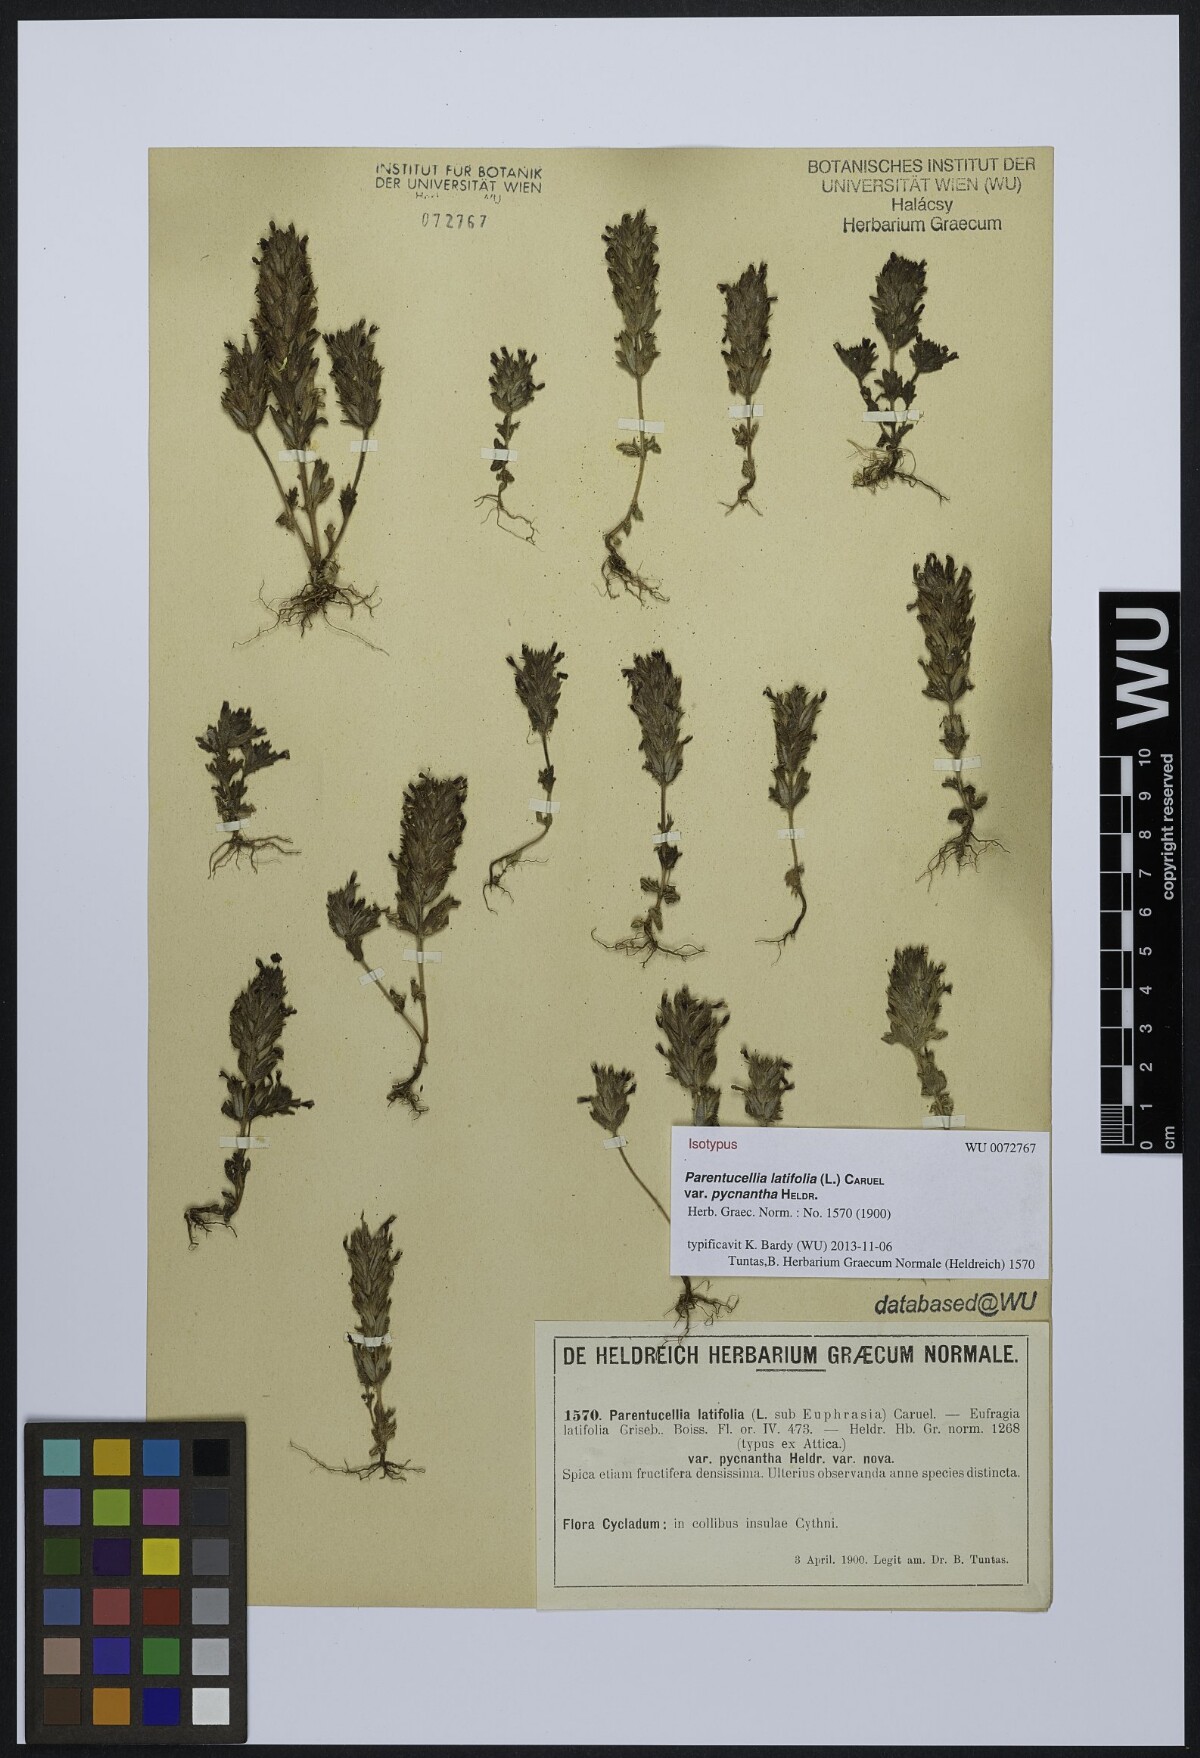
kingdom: Plantae
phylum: Tracheophyta
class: Magnoliopsida
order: Lamiales
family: Orobanchaceae
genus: Parentucellia
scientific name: Parentucellia latifolia
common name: Broadleaf glandweed
